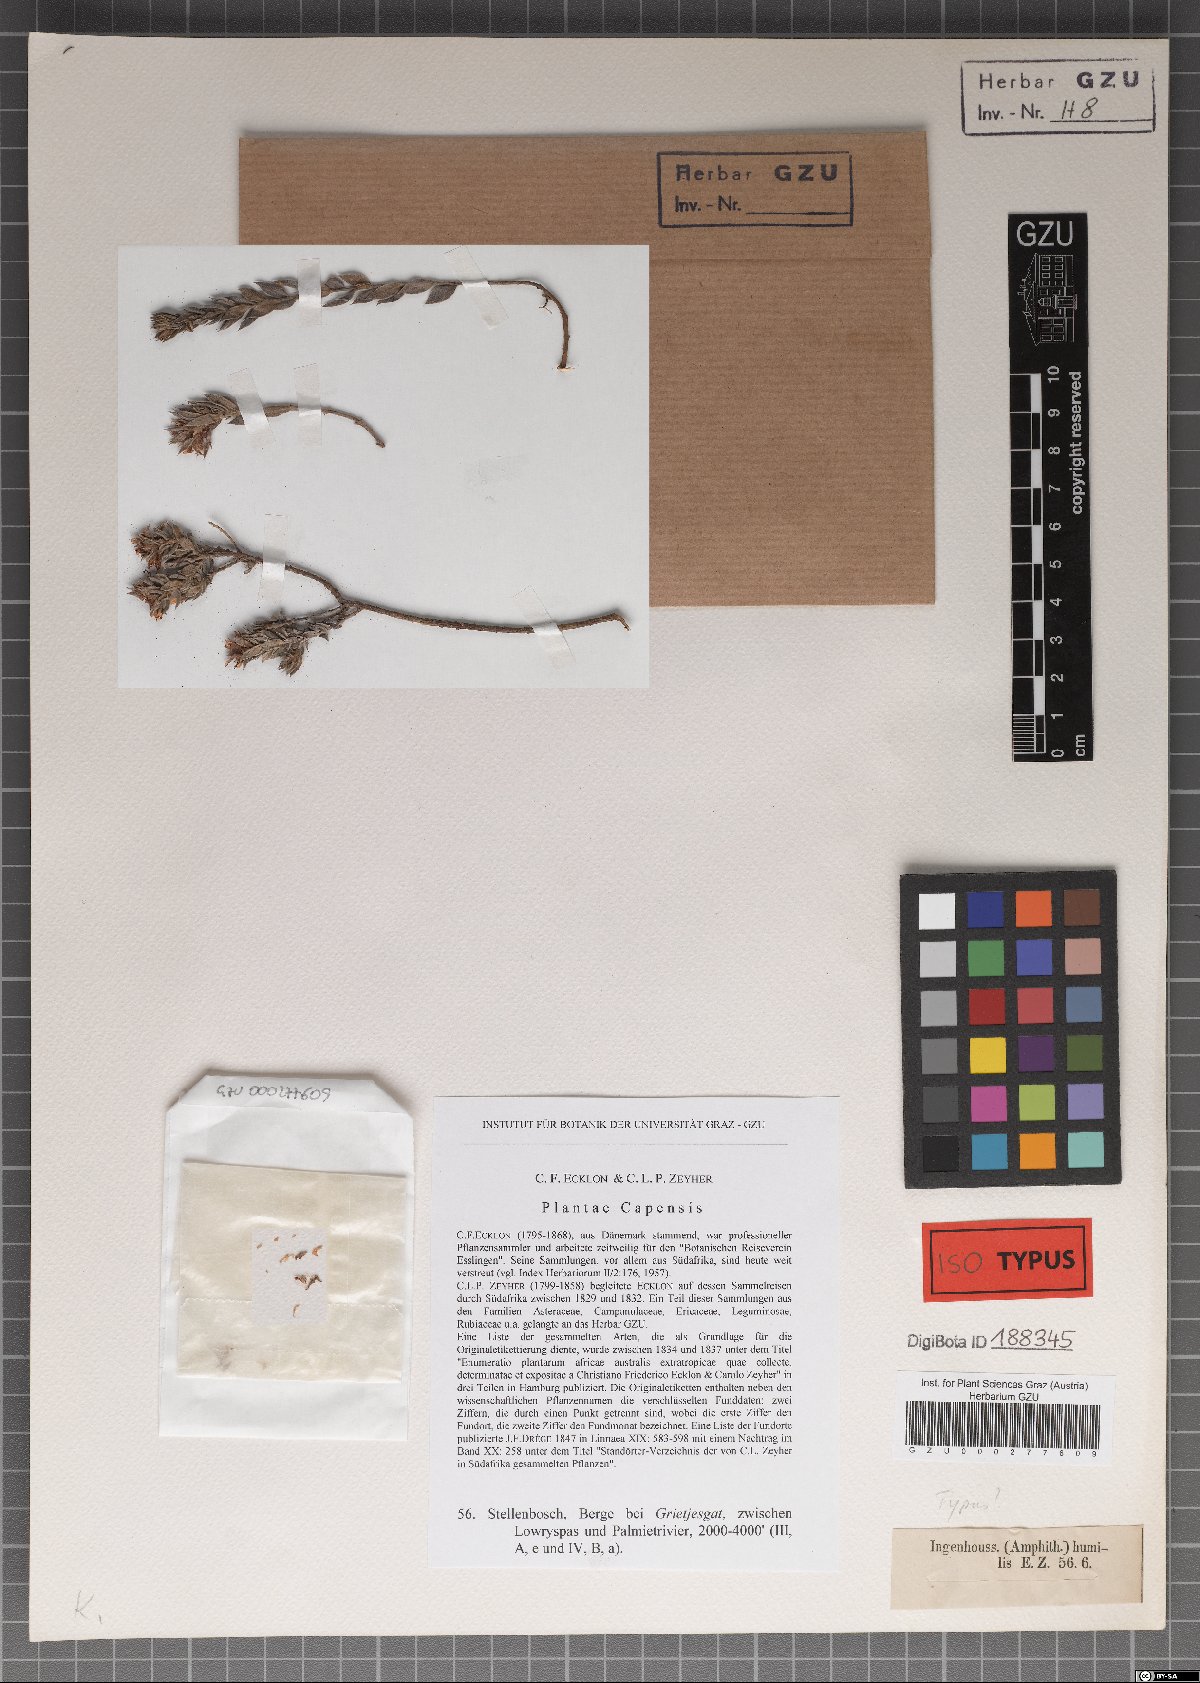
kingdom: Plantae
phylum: Tracheophyta
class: Magnoliopsida
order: Fabales
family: Fabaceae
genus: Amphithalea
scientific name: Amphithalea intermedia
